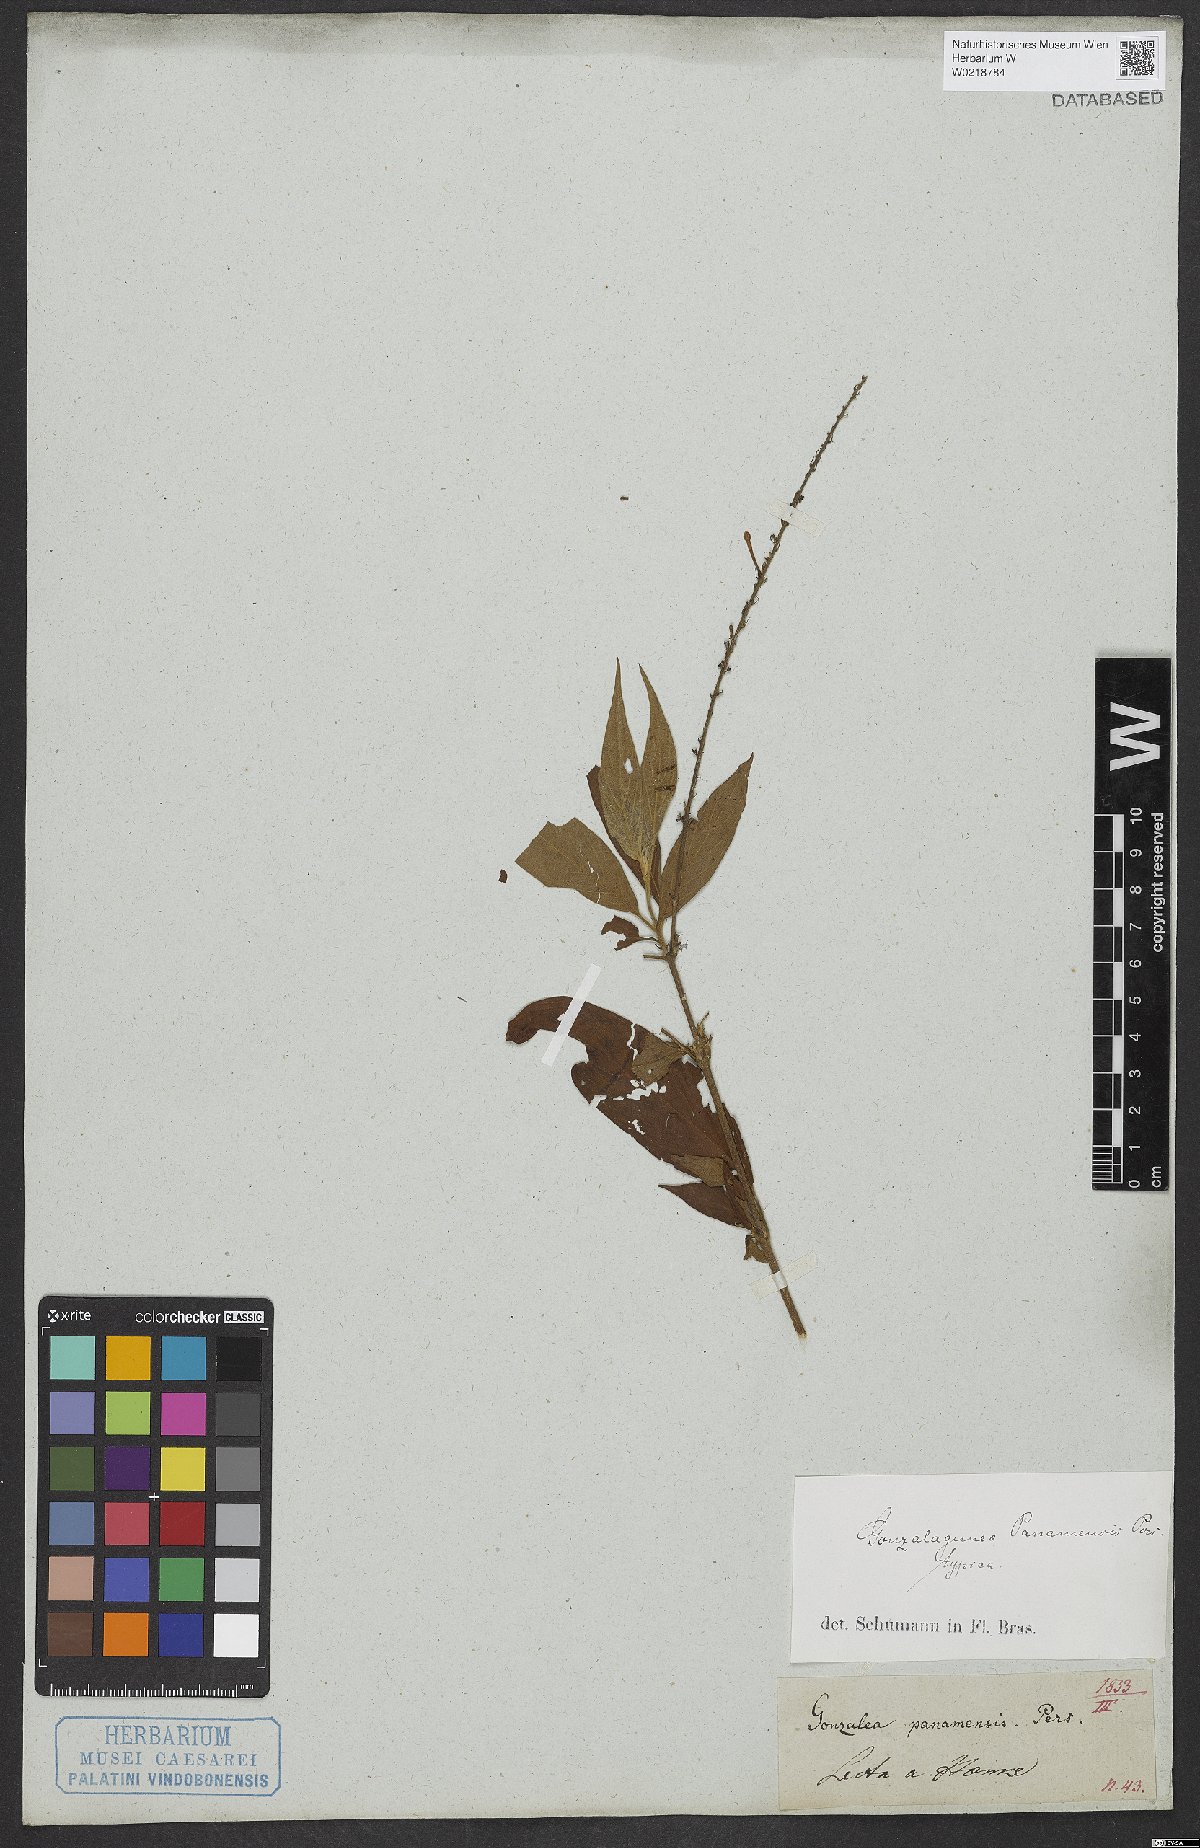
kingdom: Plantae
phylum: Tracheophyta
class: Magnoliopsida
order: Gentianales
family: Rubiaceae
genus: Gonzalagunia
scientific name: Gonzalagunia panamensis
